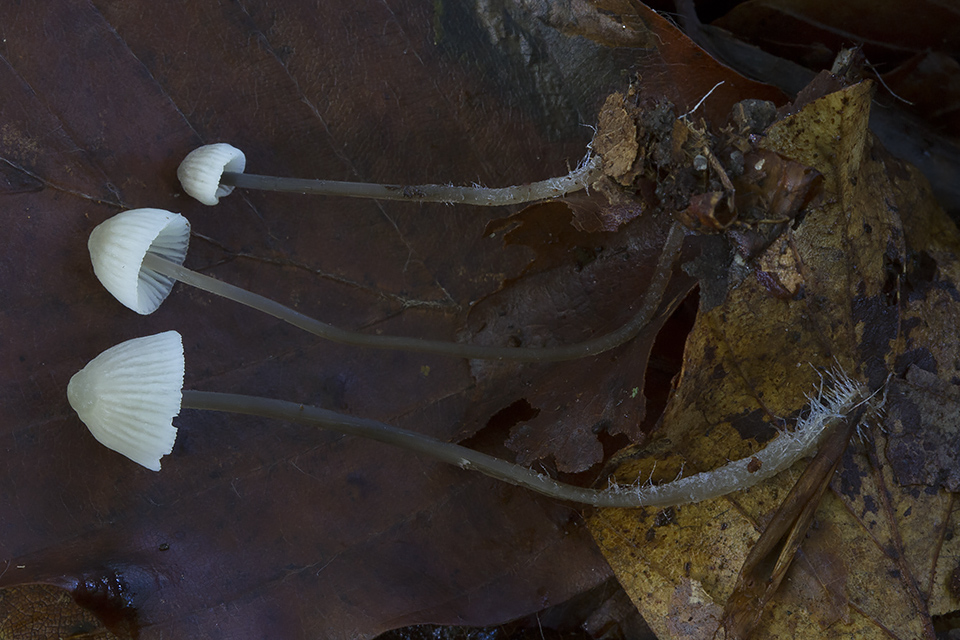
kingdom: Fungi
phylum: Basidiomycota
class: Agaricomycetes
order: Agaricales
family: Mycenaceae
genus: Mycena
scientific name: Mycena flavescens
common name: grågul huesvamp
